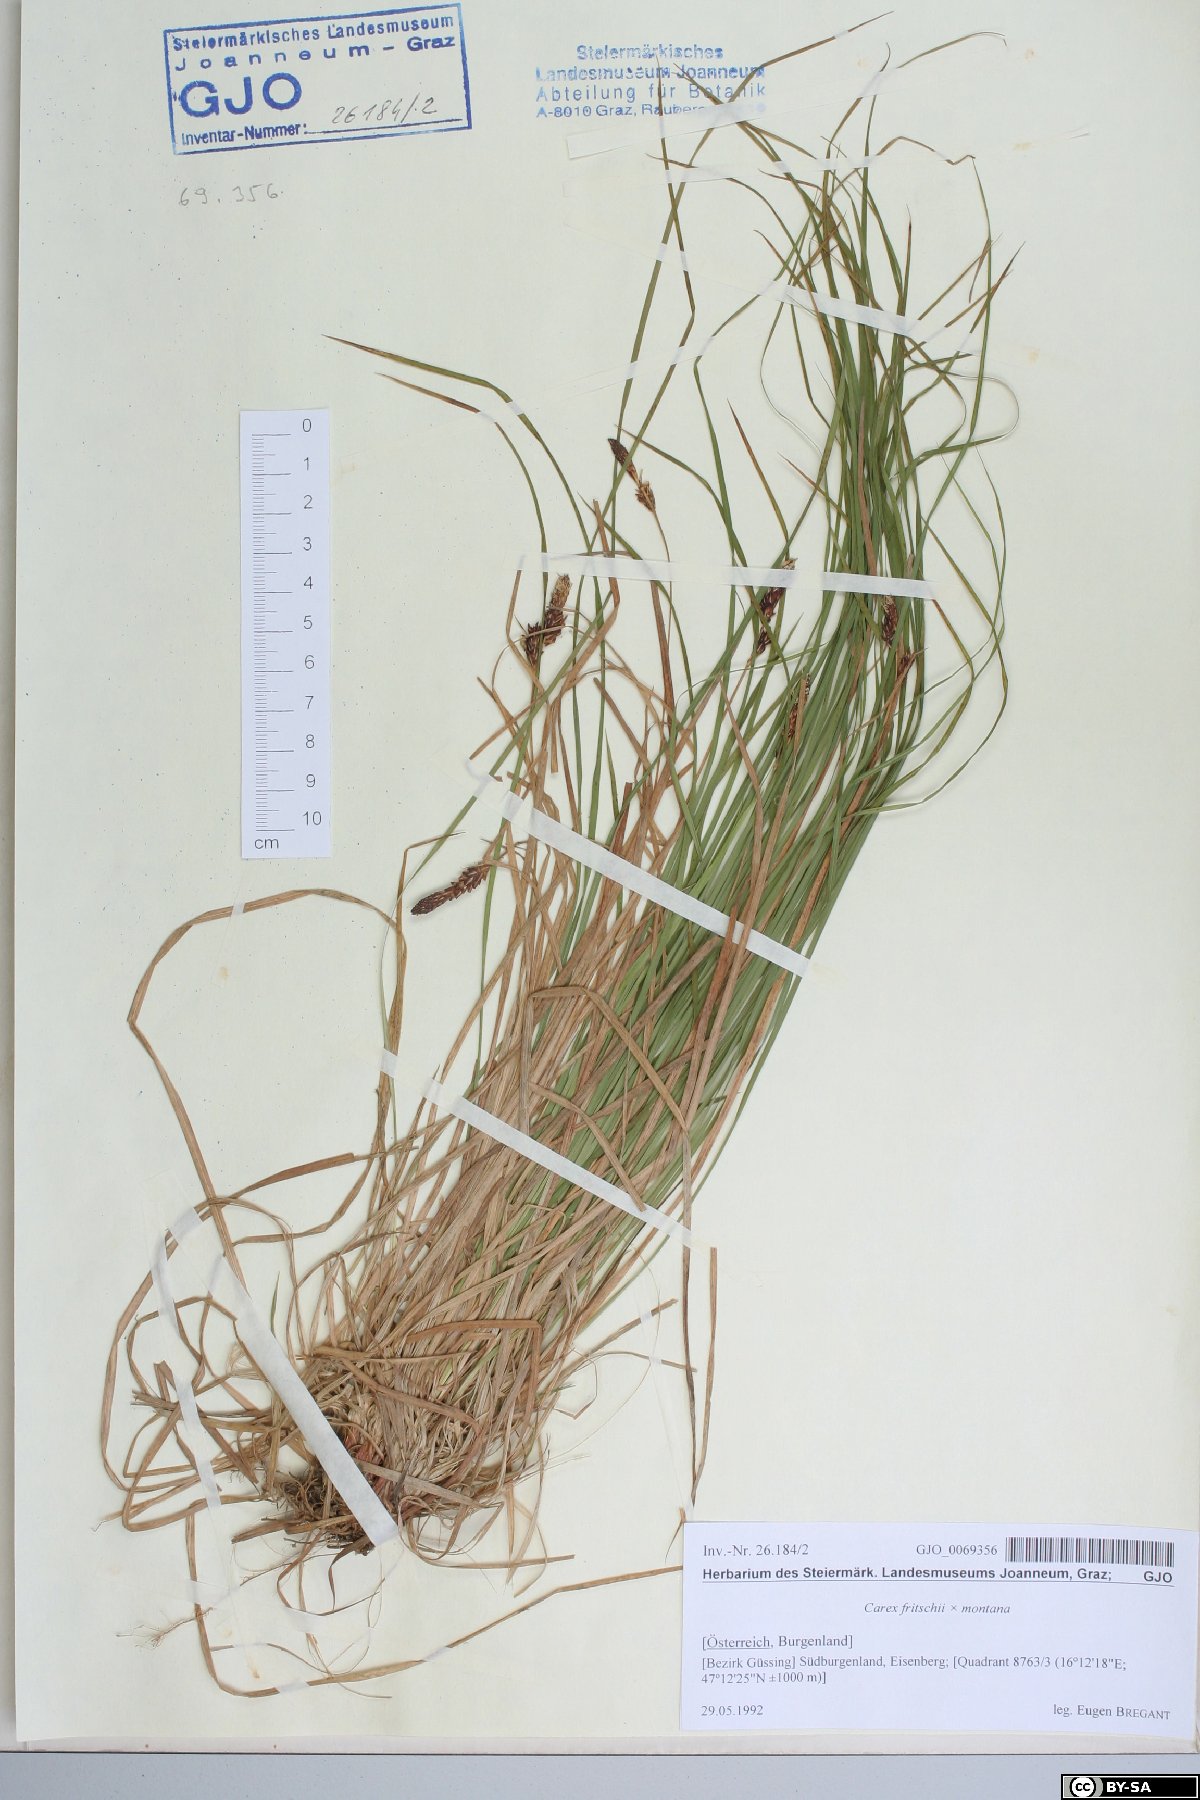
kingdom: Plantae
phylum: Tracheophyta
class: Liliopsida
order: Poales
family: Cyperaceae
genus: Carex
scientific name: Carex fritschii
